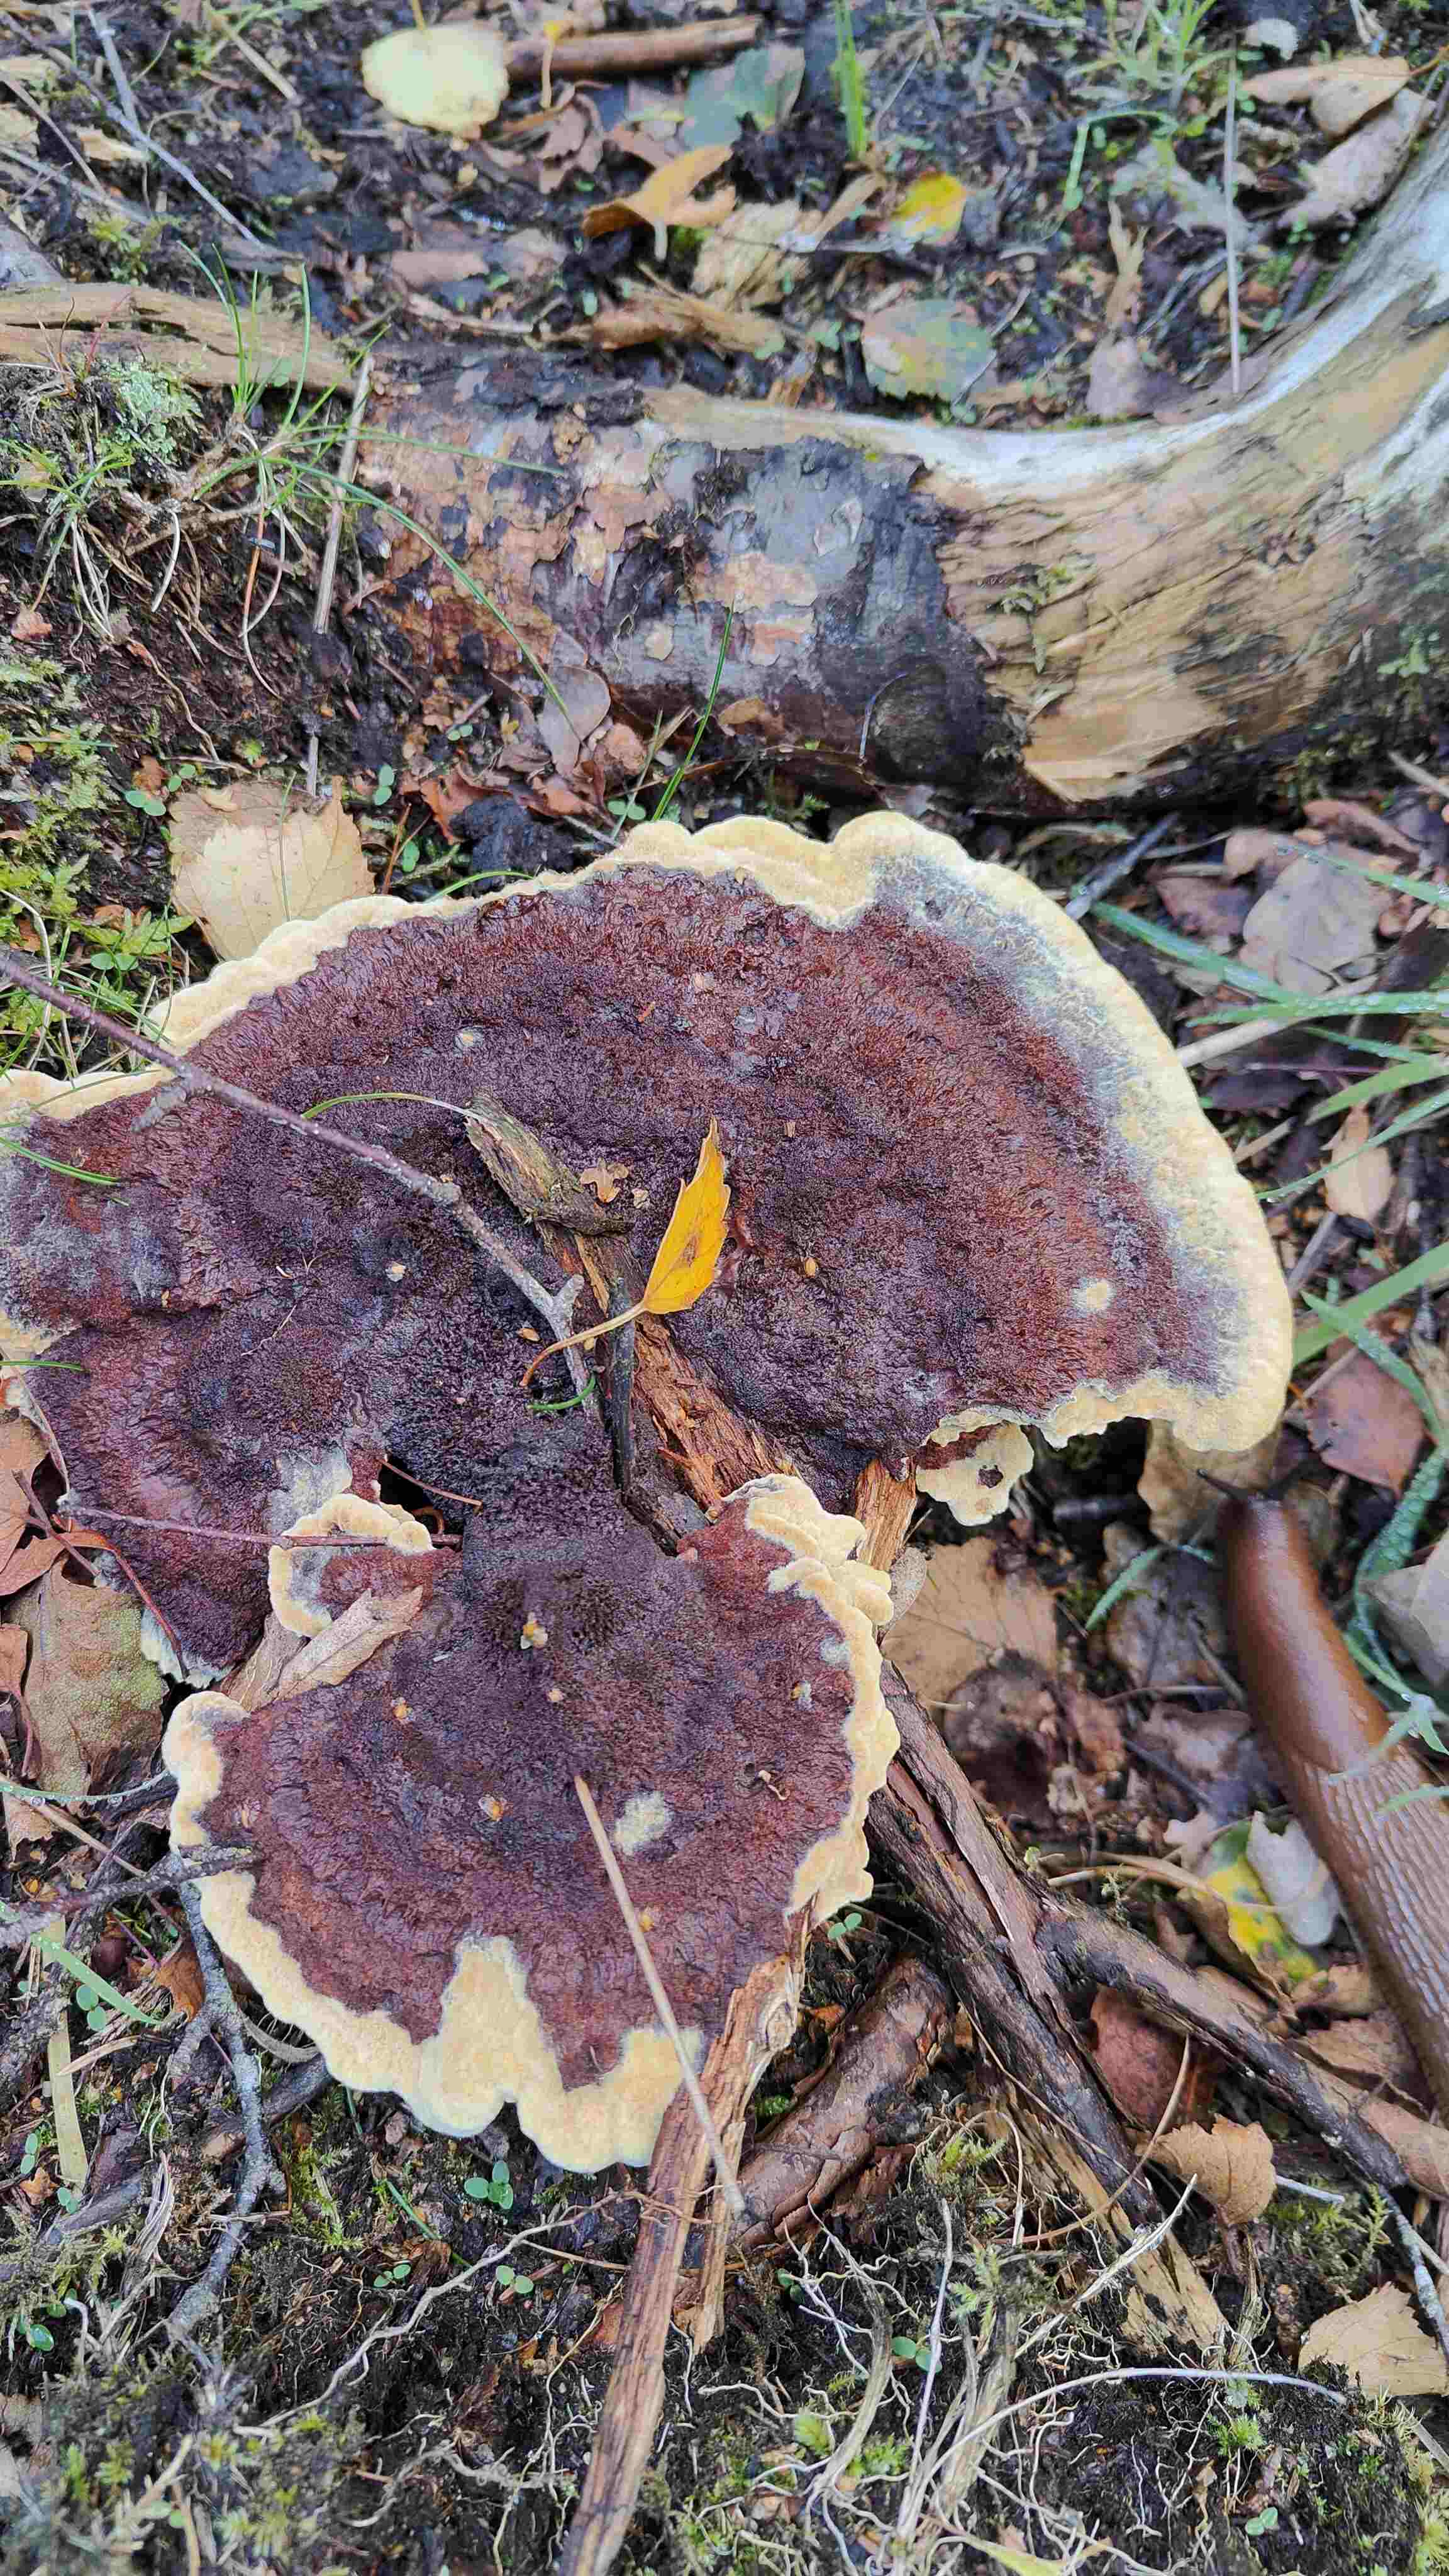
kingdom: Fungi
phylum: Basidiomycota
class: Agaricomycetes
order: Polyporales
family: Laetiporaceae
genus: Phaeolus
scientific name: Phaeolus schweinitzii
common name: brunporesvamp
